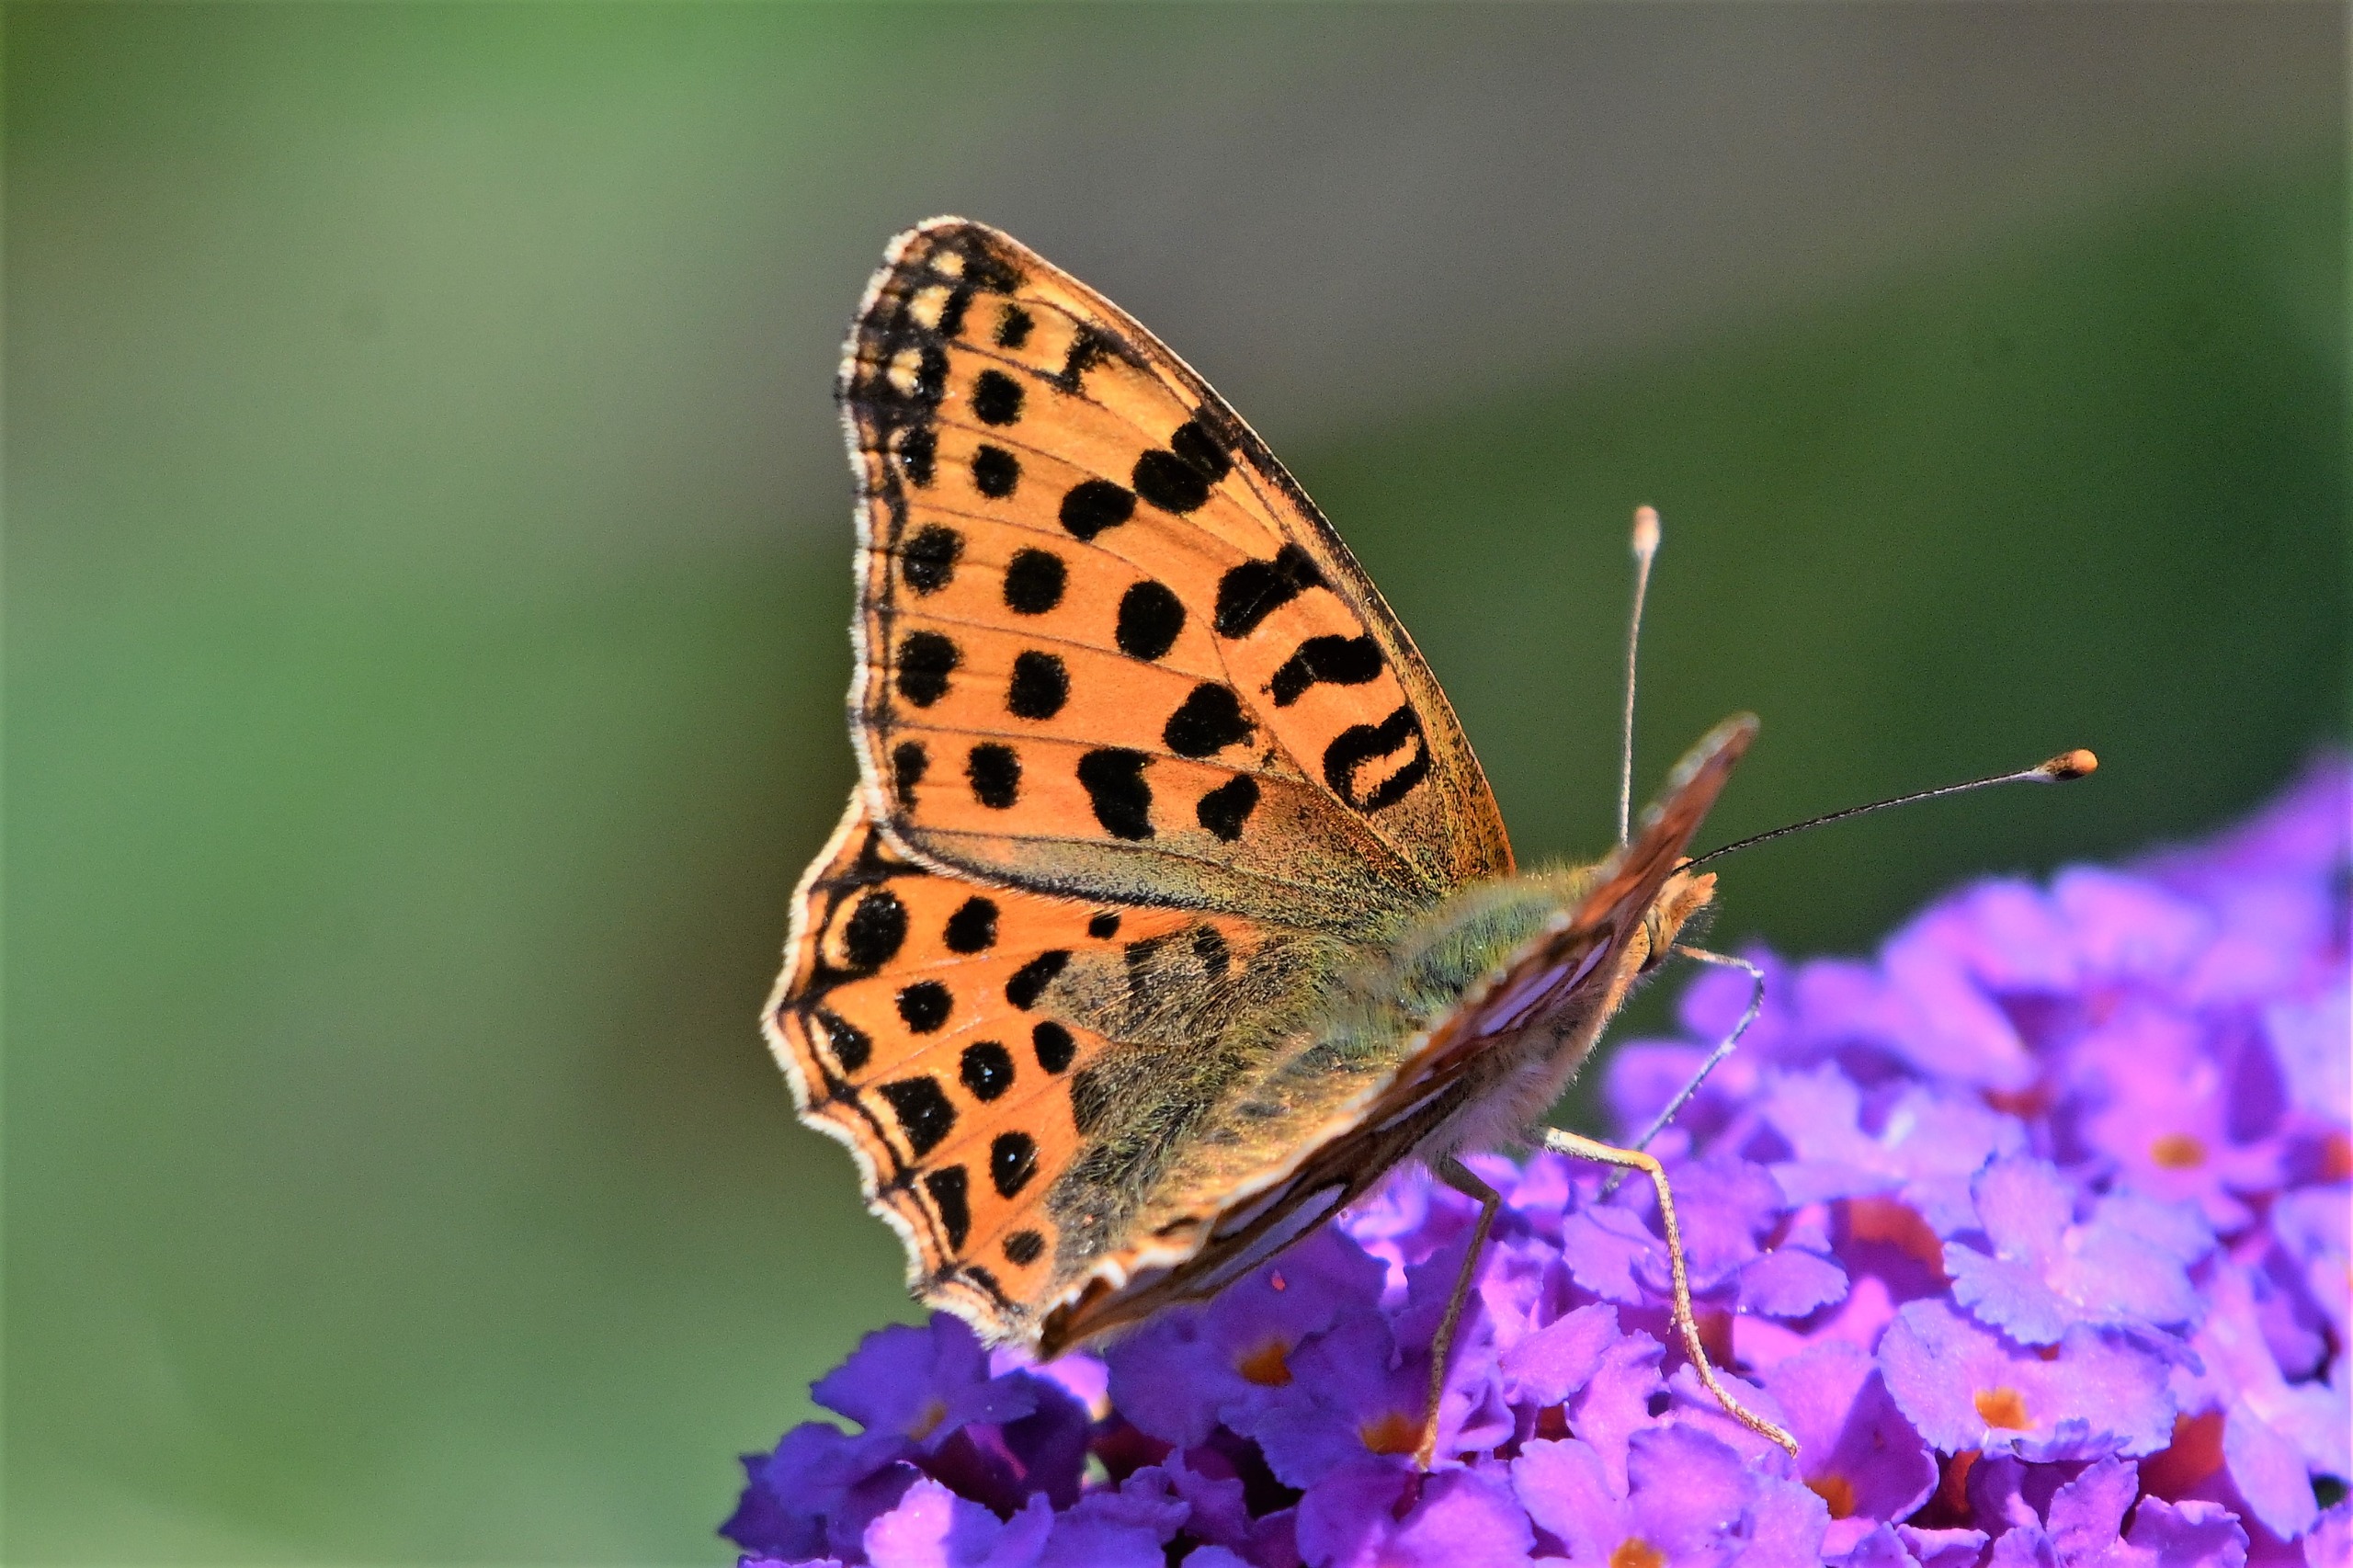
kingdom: Animalia
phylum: Arthropoda
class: Insecta
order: Lepidoptera
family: Nymphalidae
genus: Issoria
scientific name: Issoria lathonia
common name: Storplettet perlemorsommerfugl
